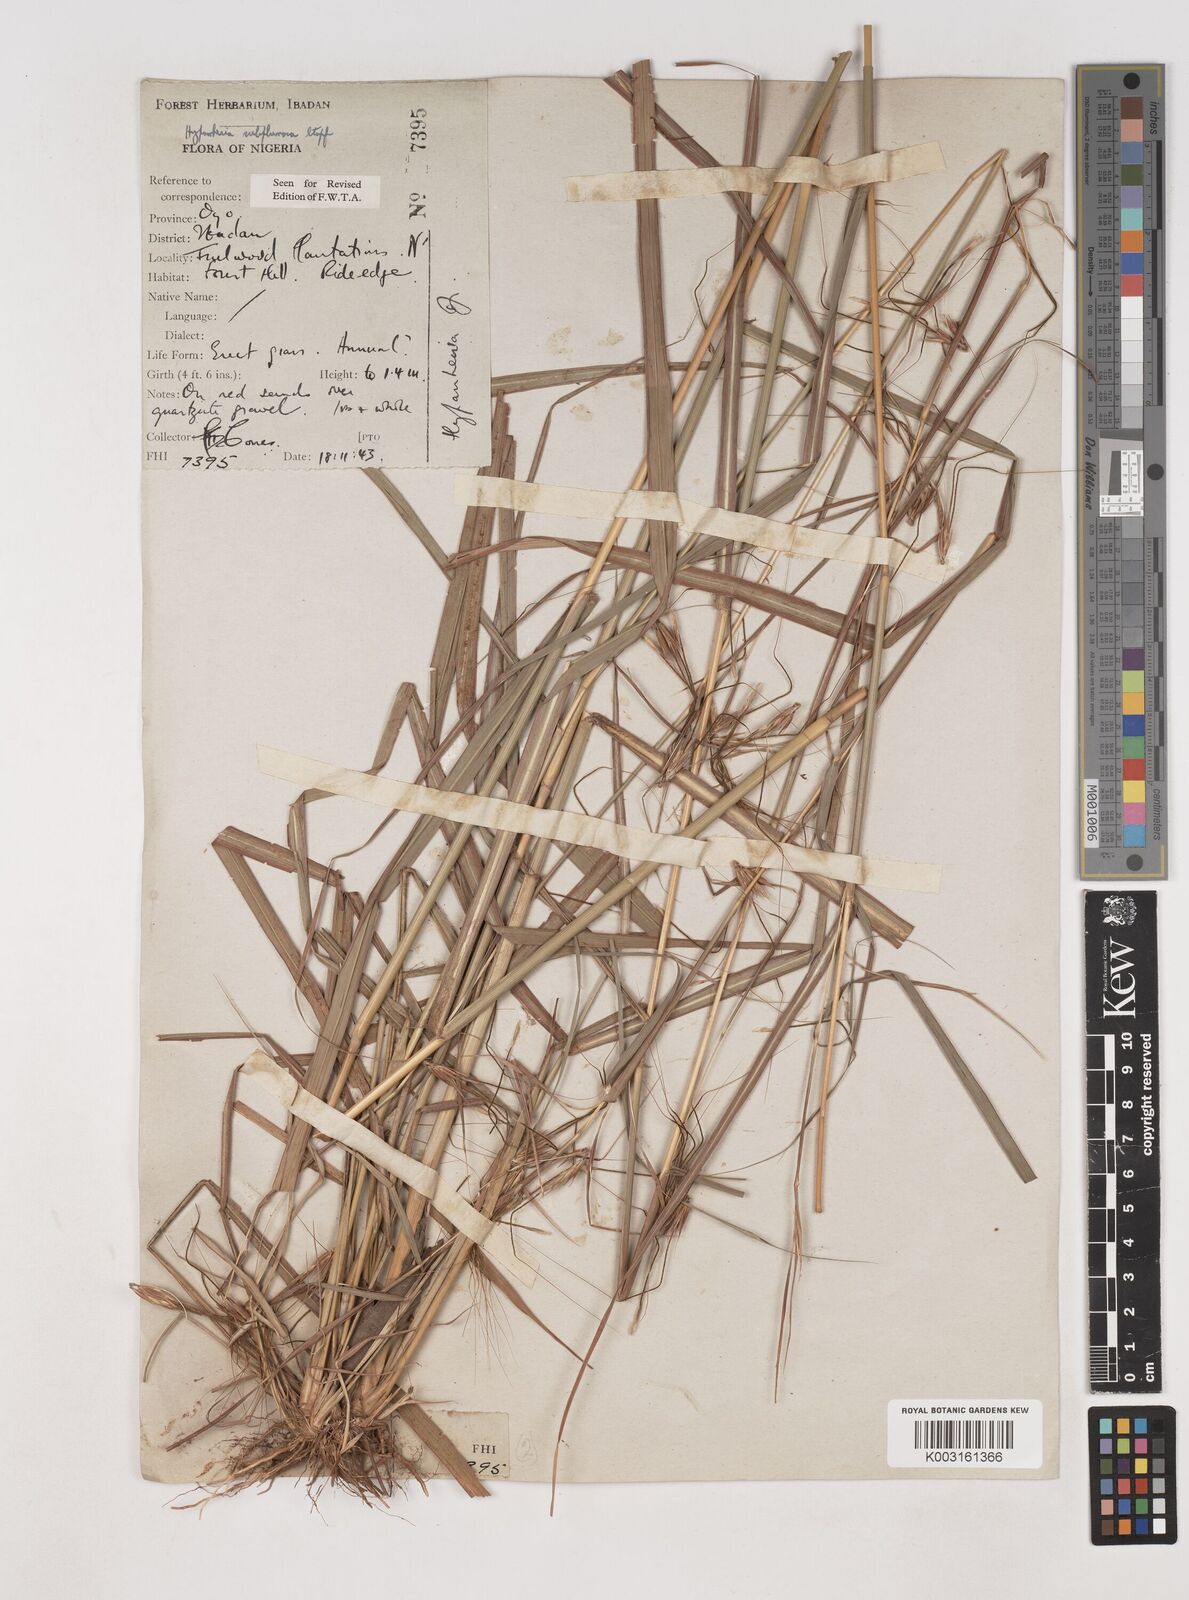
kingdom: Plantae
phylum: Tracheophyta
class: Liliopsida
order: Poales
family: Poaceae
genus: Hyparrhenia
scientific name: Hyparrhenia subplumosa
